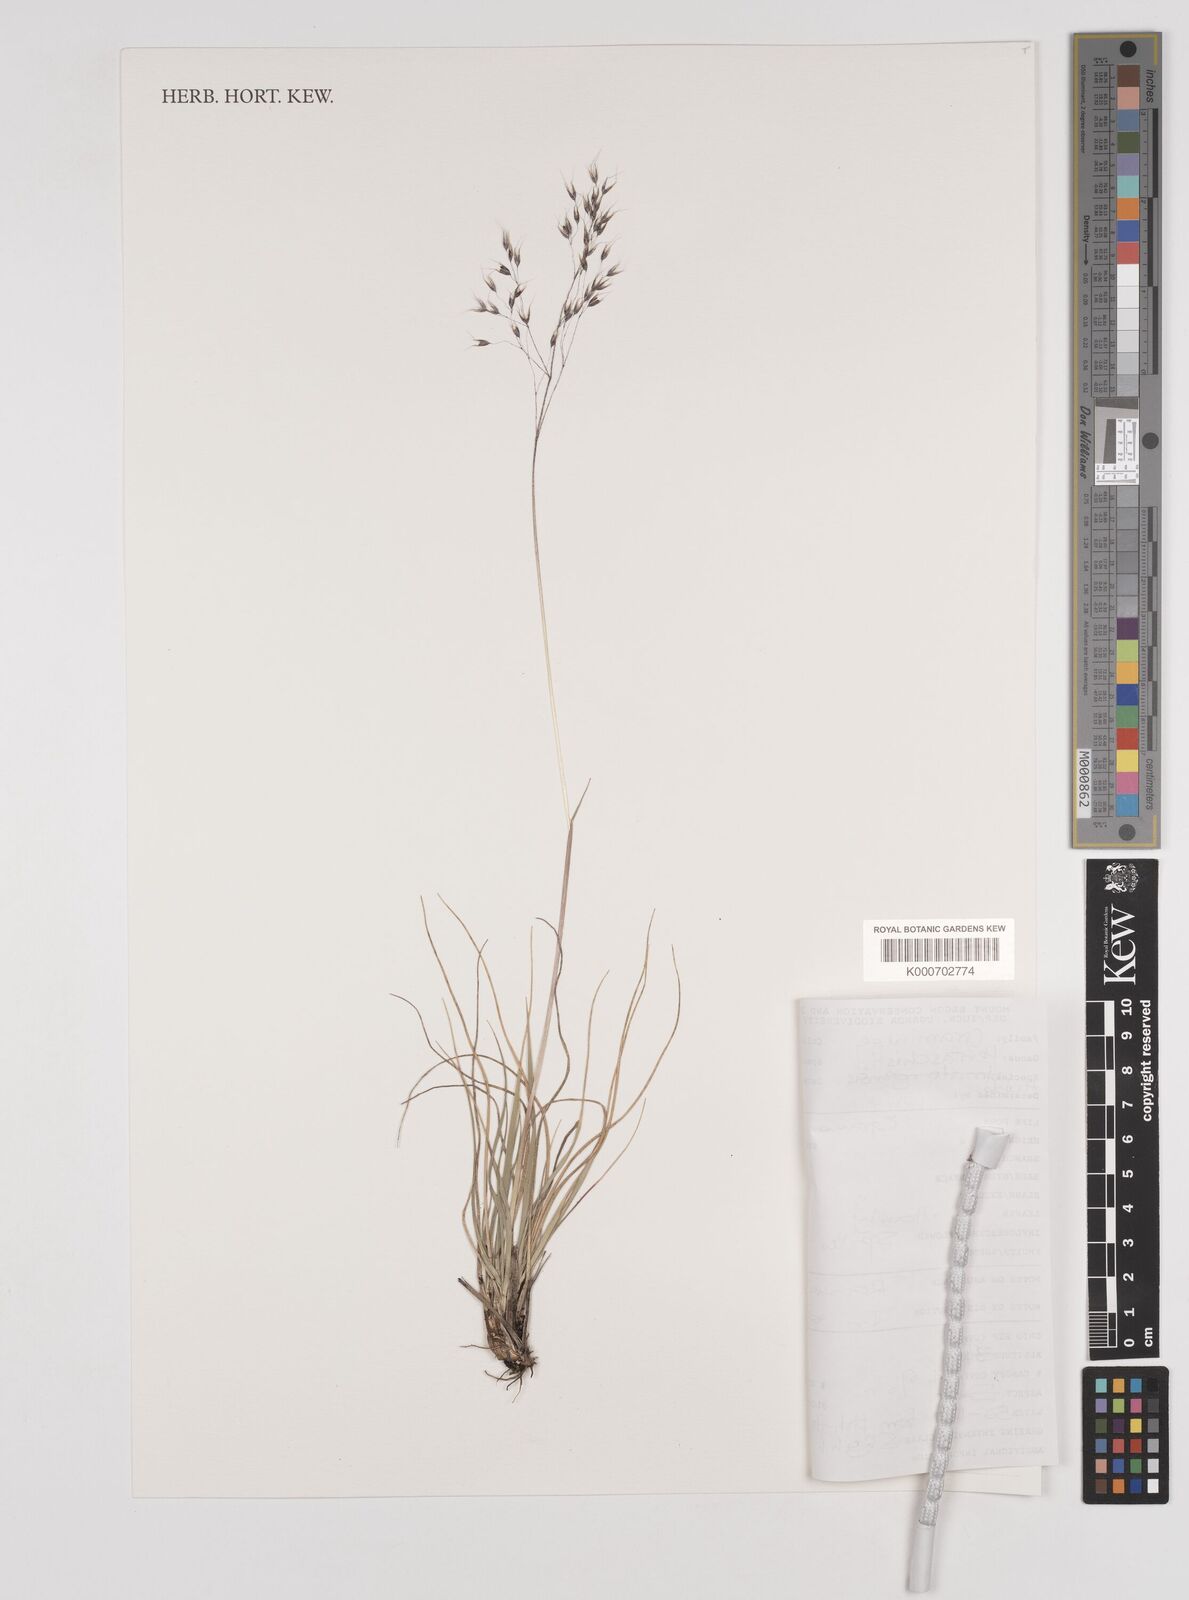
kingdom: Plantae
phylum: Tracheophyta
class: Liliopsida
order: Poales
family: Poaceae
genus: Pentameris
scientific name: Pentameris borussica
